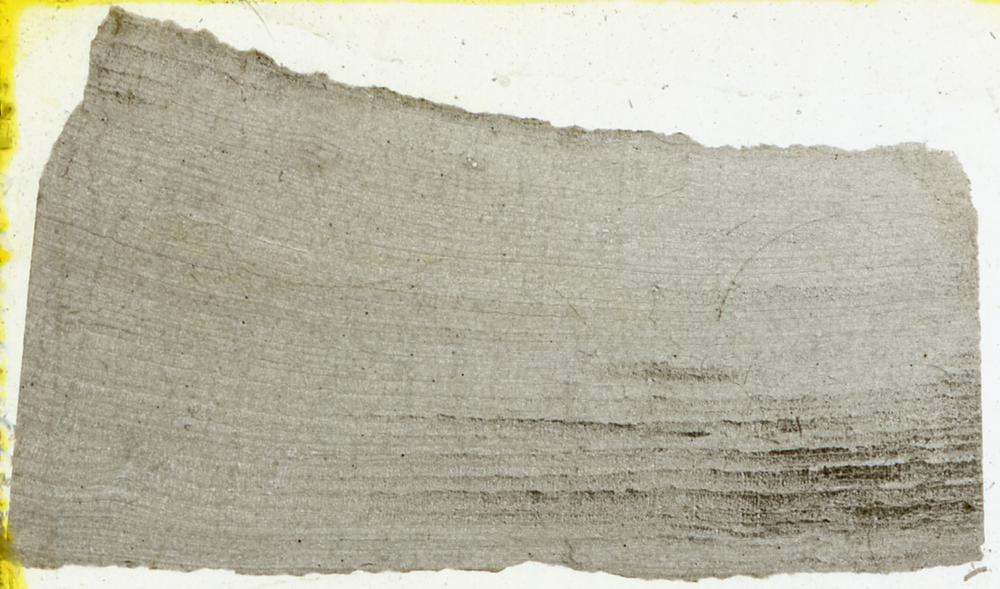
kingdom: Animalia
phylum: Porifera
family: Densastromatidae
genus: Densastroma
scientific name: Densastroma
